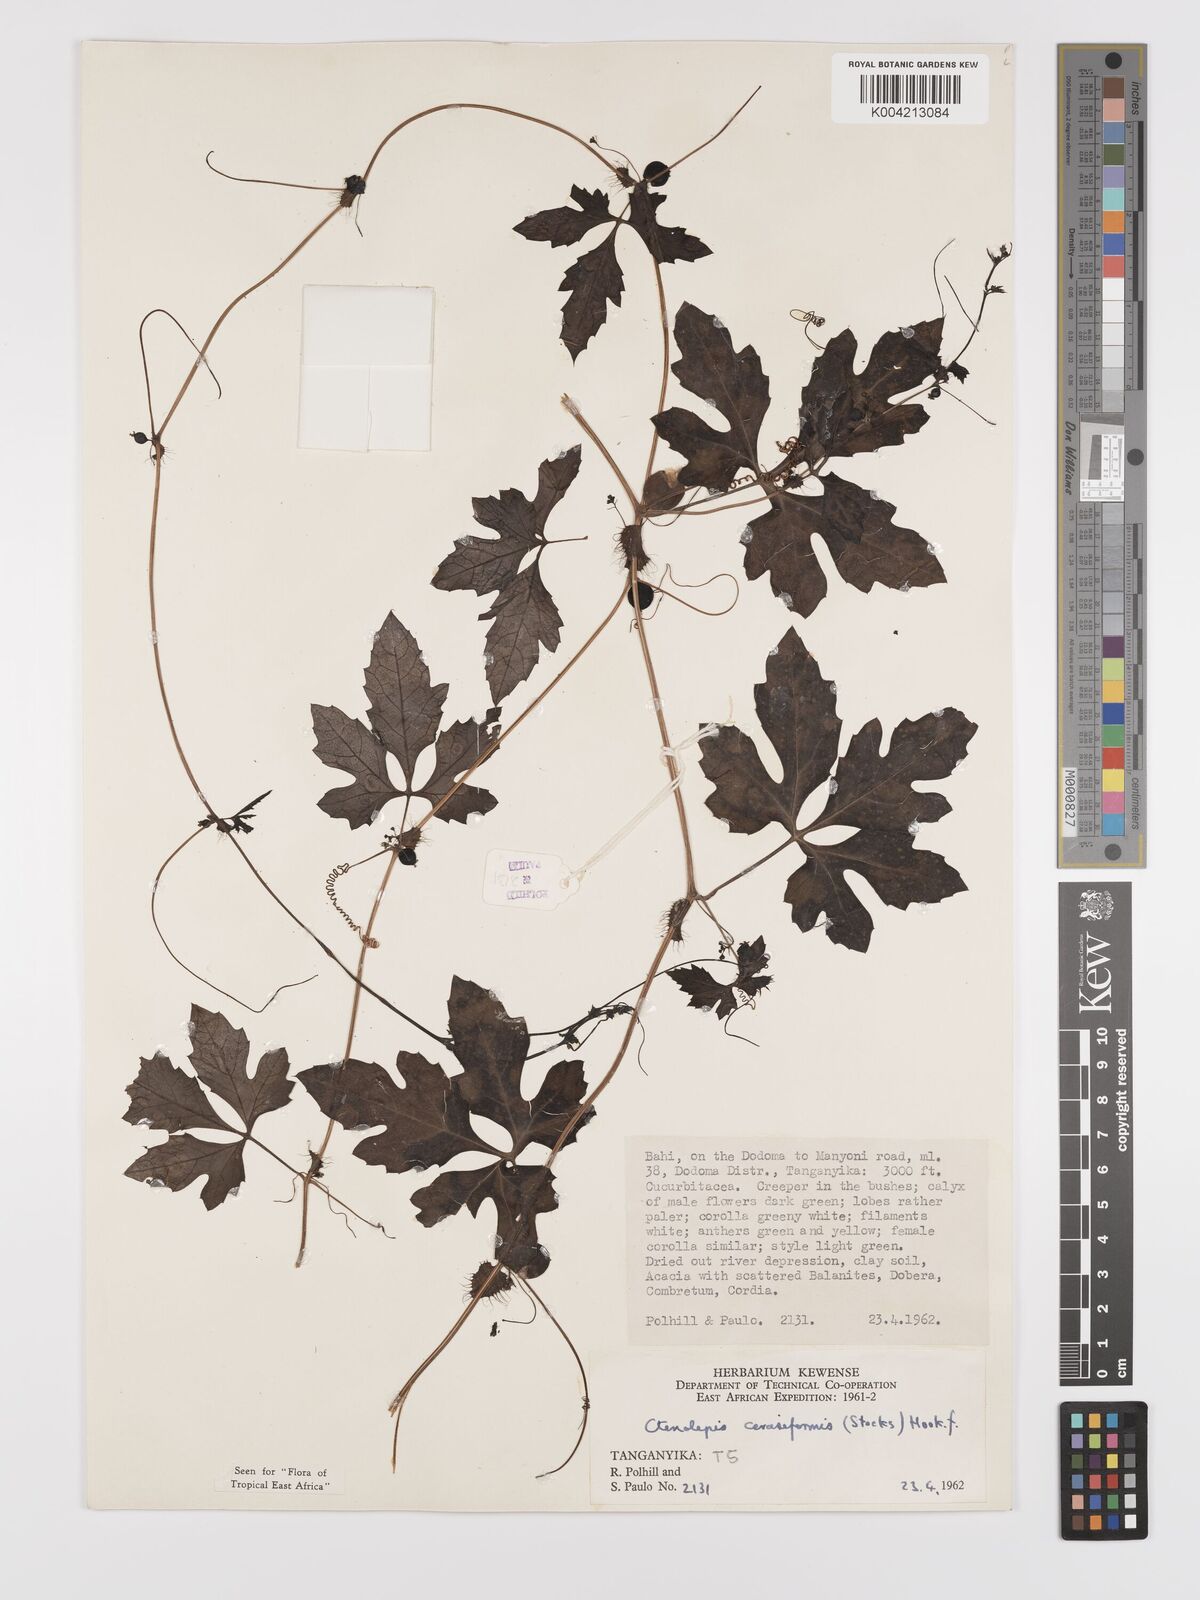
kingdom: Plantae
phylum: Tracheophyta
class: Magnoliopsida
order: Cucurbitales
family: Cucurbitaceae
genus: Blastania
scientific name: Blastania
